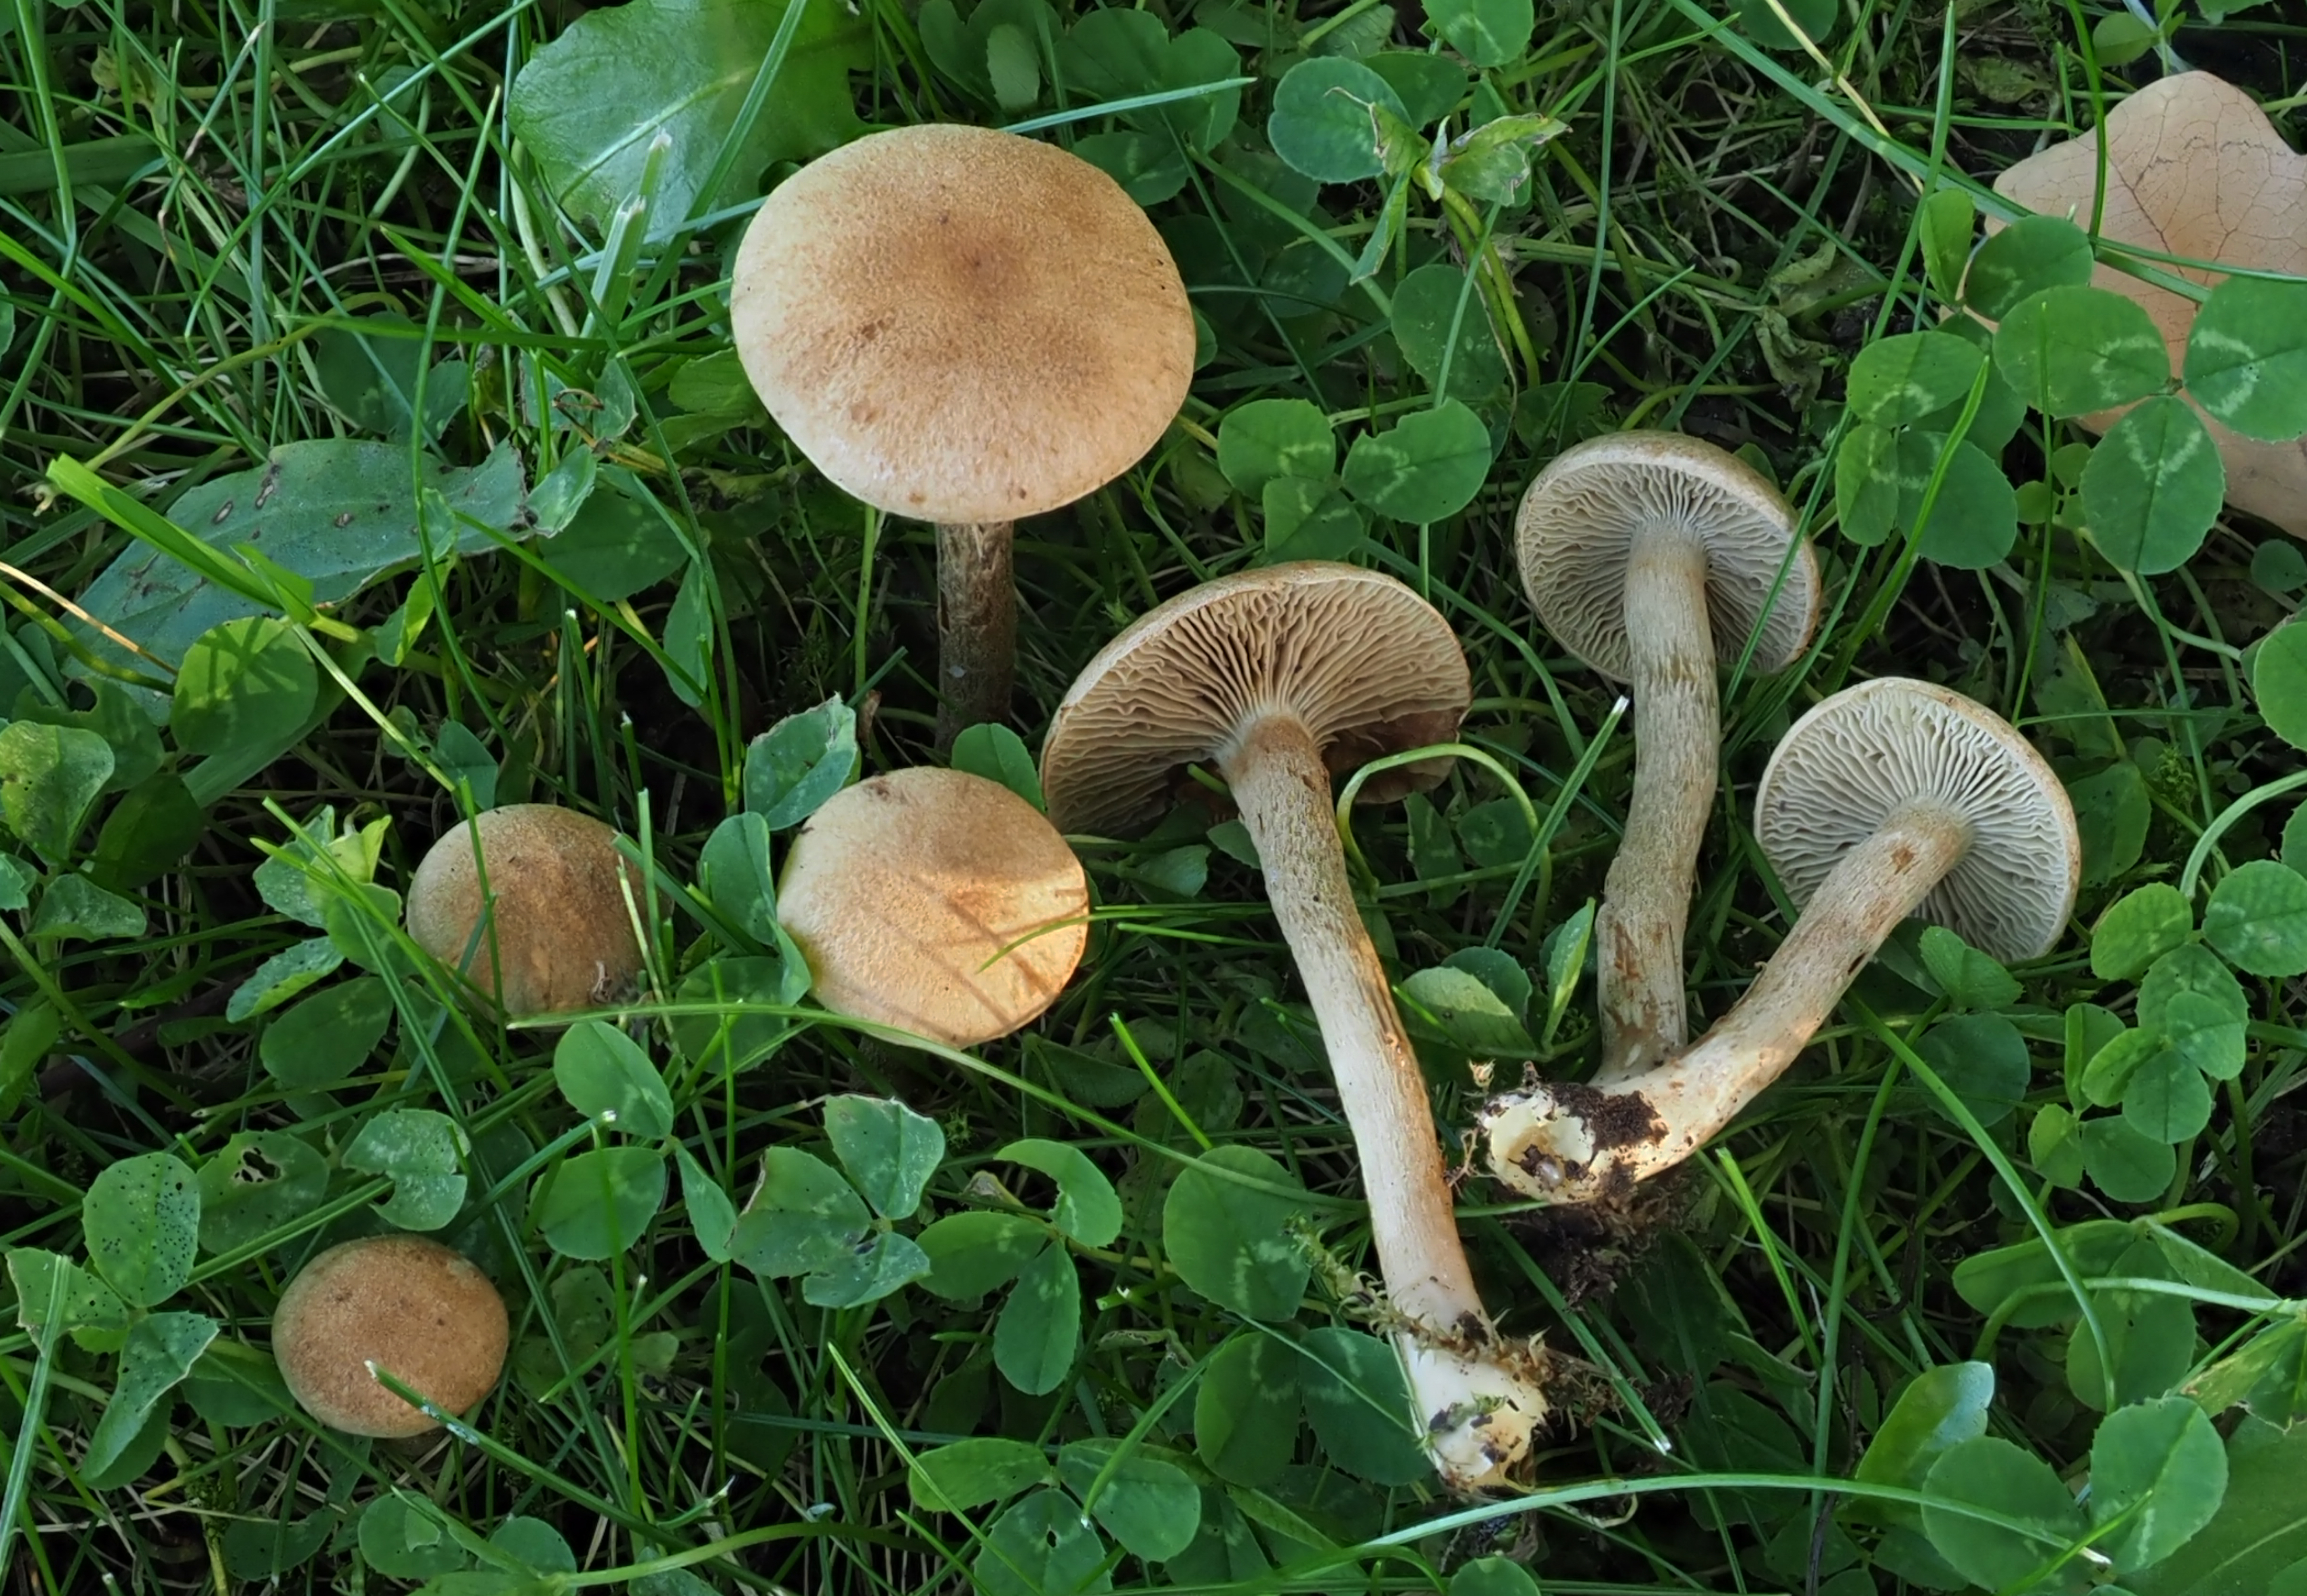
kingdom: Fungi
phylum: Basidiomycota
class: Agaricomycetes
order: Agaricales
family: Inocybaceae
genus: Mallocybe
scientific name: Mallocybe myriadophylla
